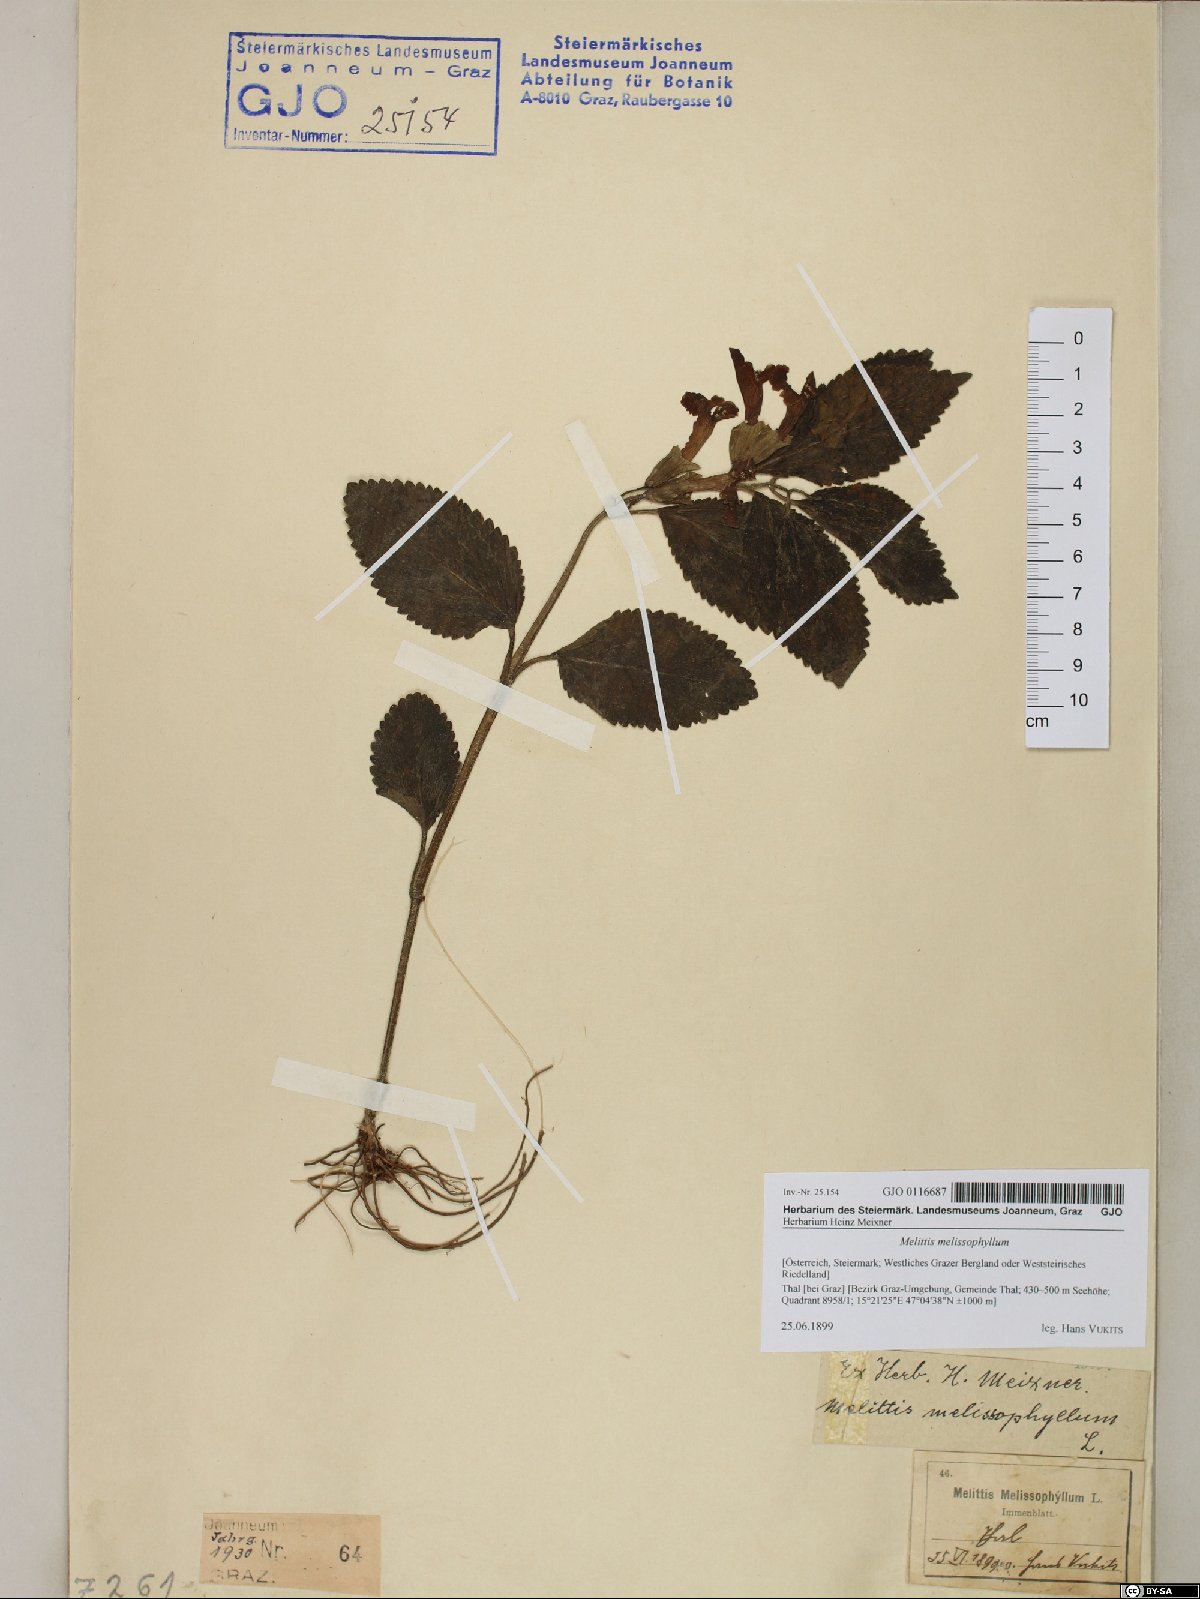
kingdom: Plantae
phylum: Tracheophyta
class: Magnoliopsida
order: Lamiales
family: Lamiaceae
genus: Melittis
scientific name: Melittis melissophyllum
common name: Bastard balm
